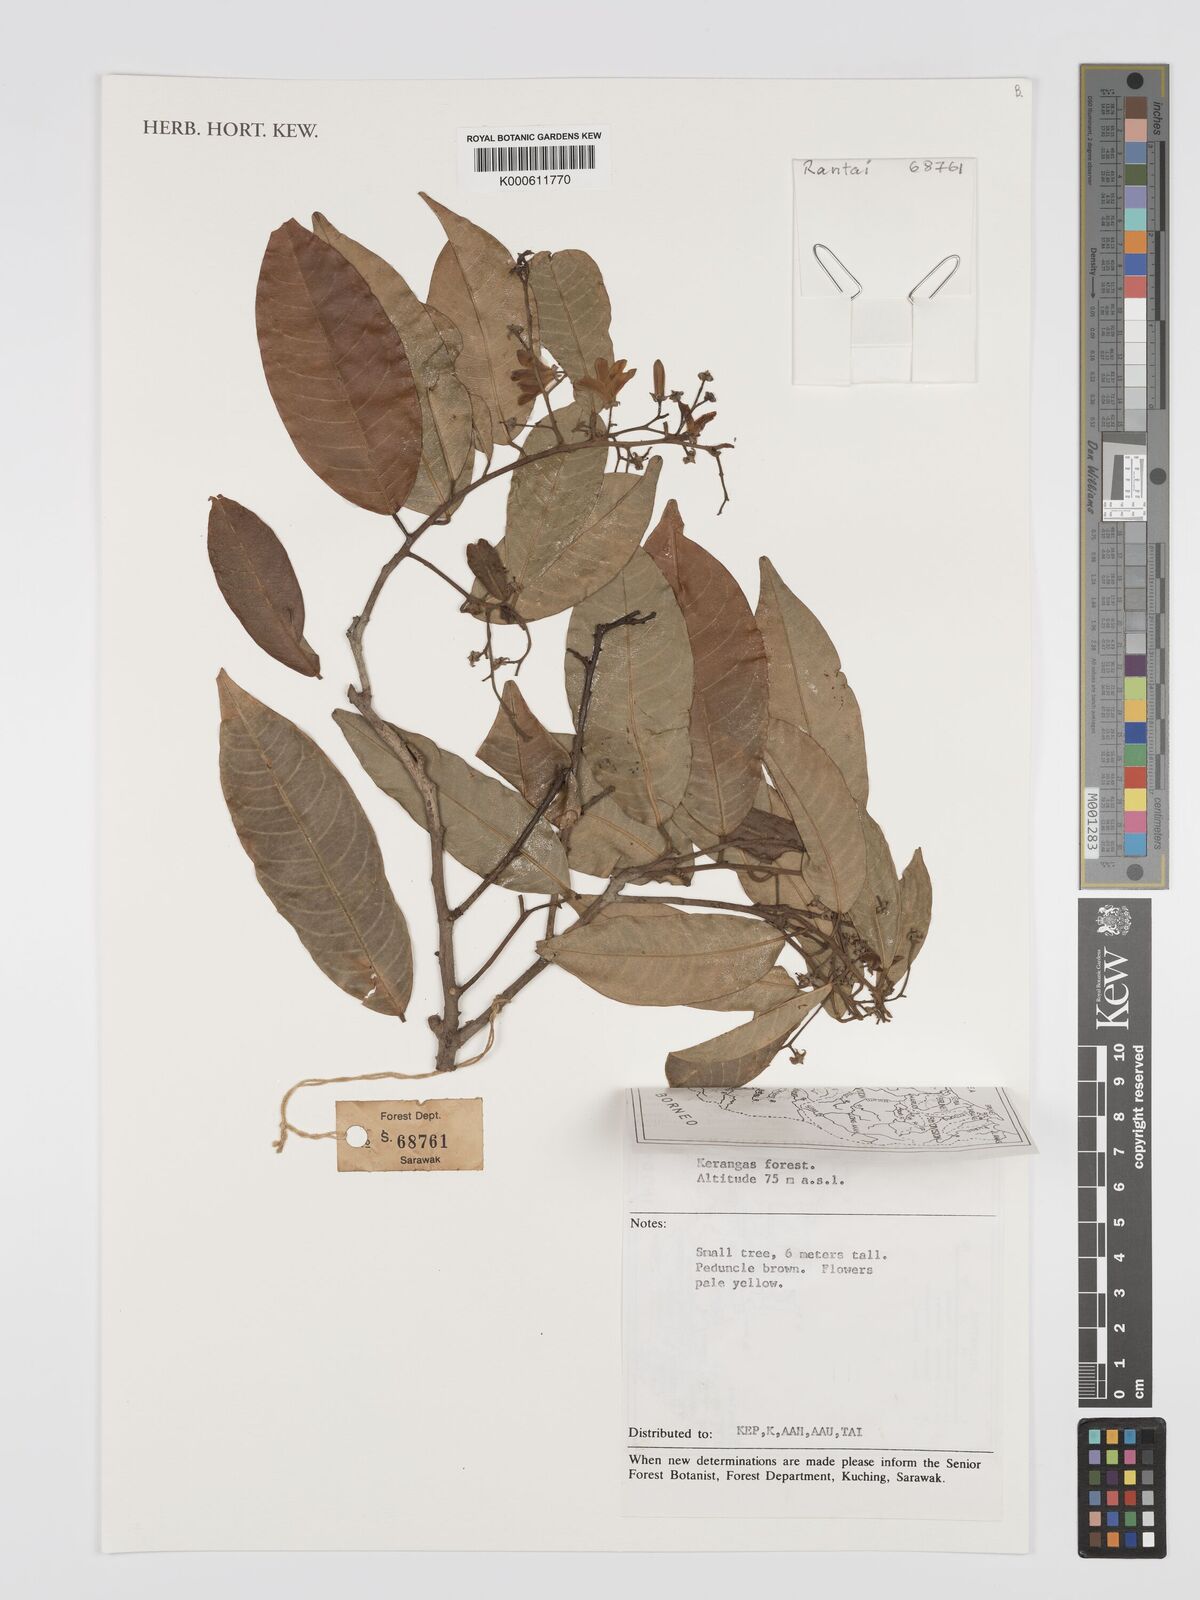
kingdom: Plantae
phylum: Tracheophyta
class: Magnoliopsida
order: Malvales
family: Dipterocarpaceae
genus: Vatica
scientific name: Vatica venulosa
